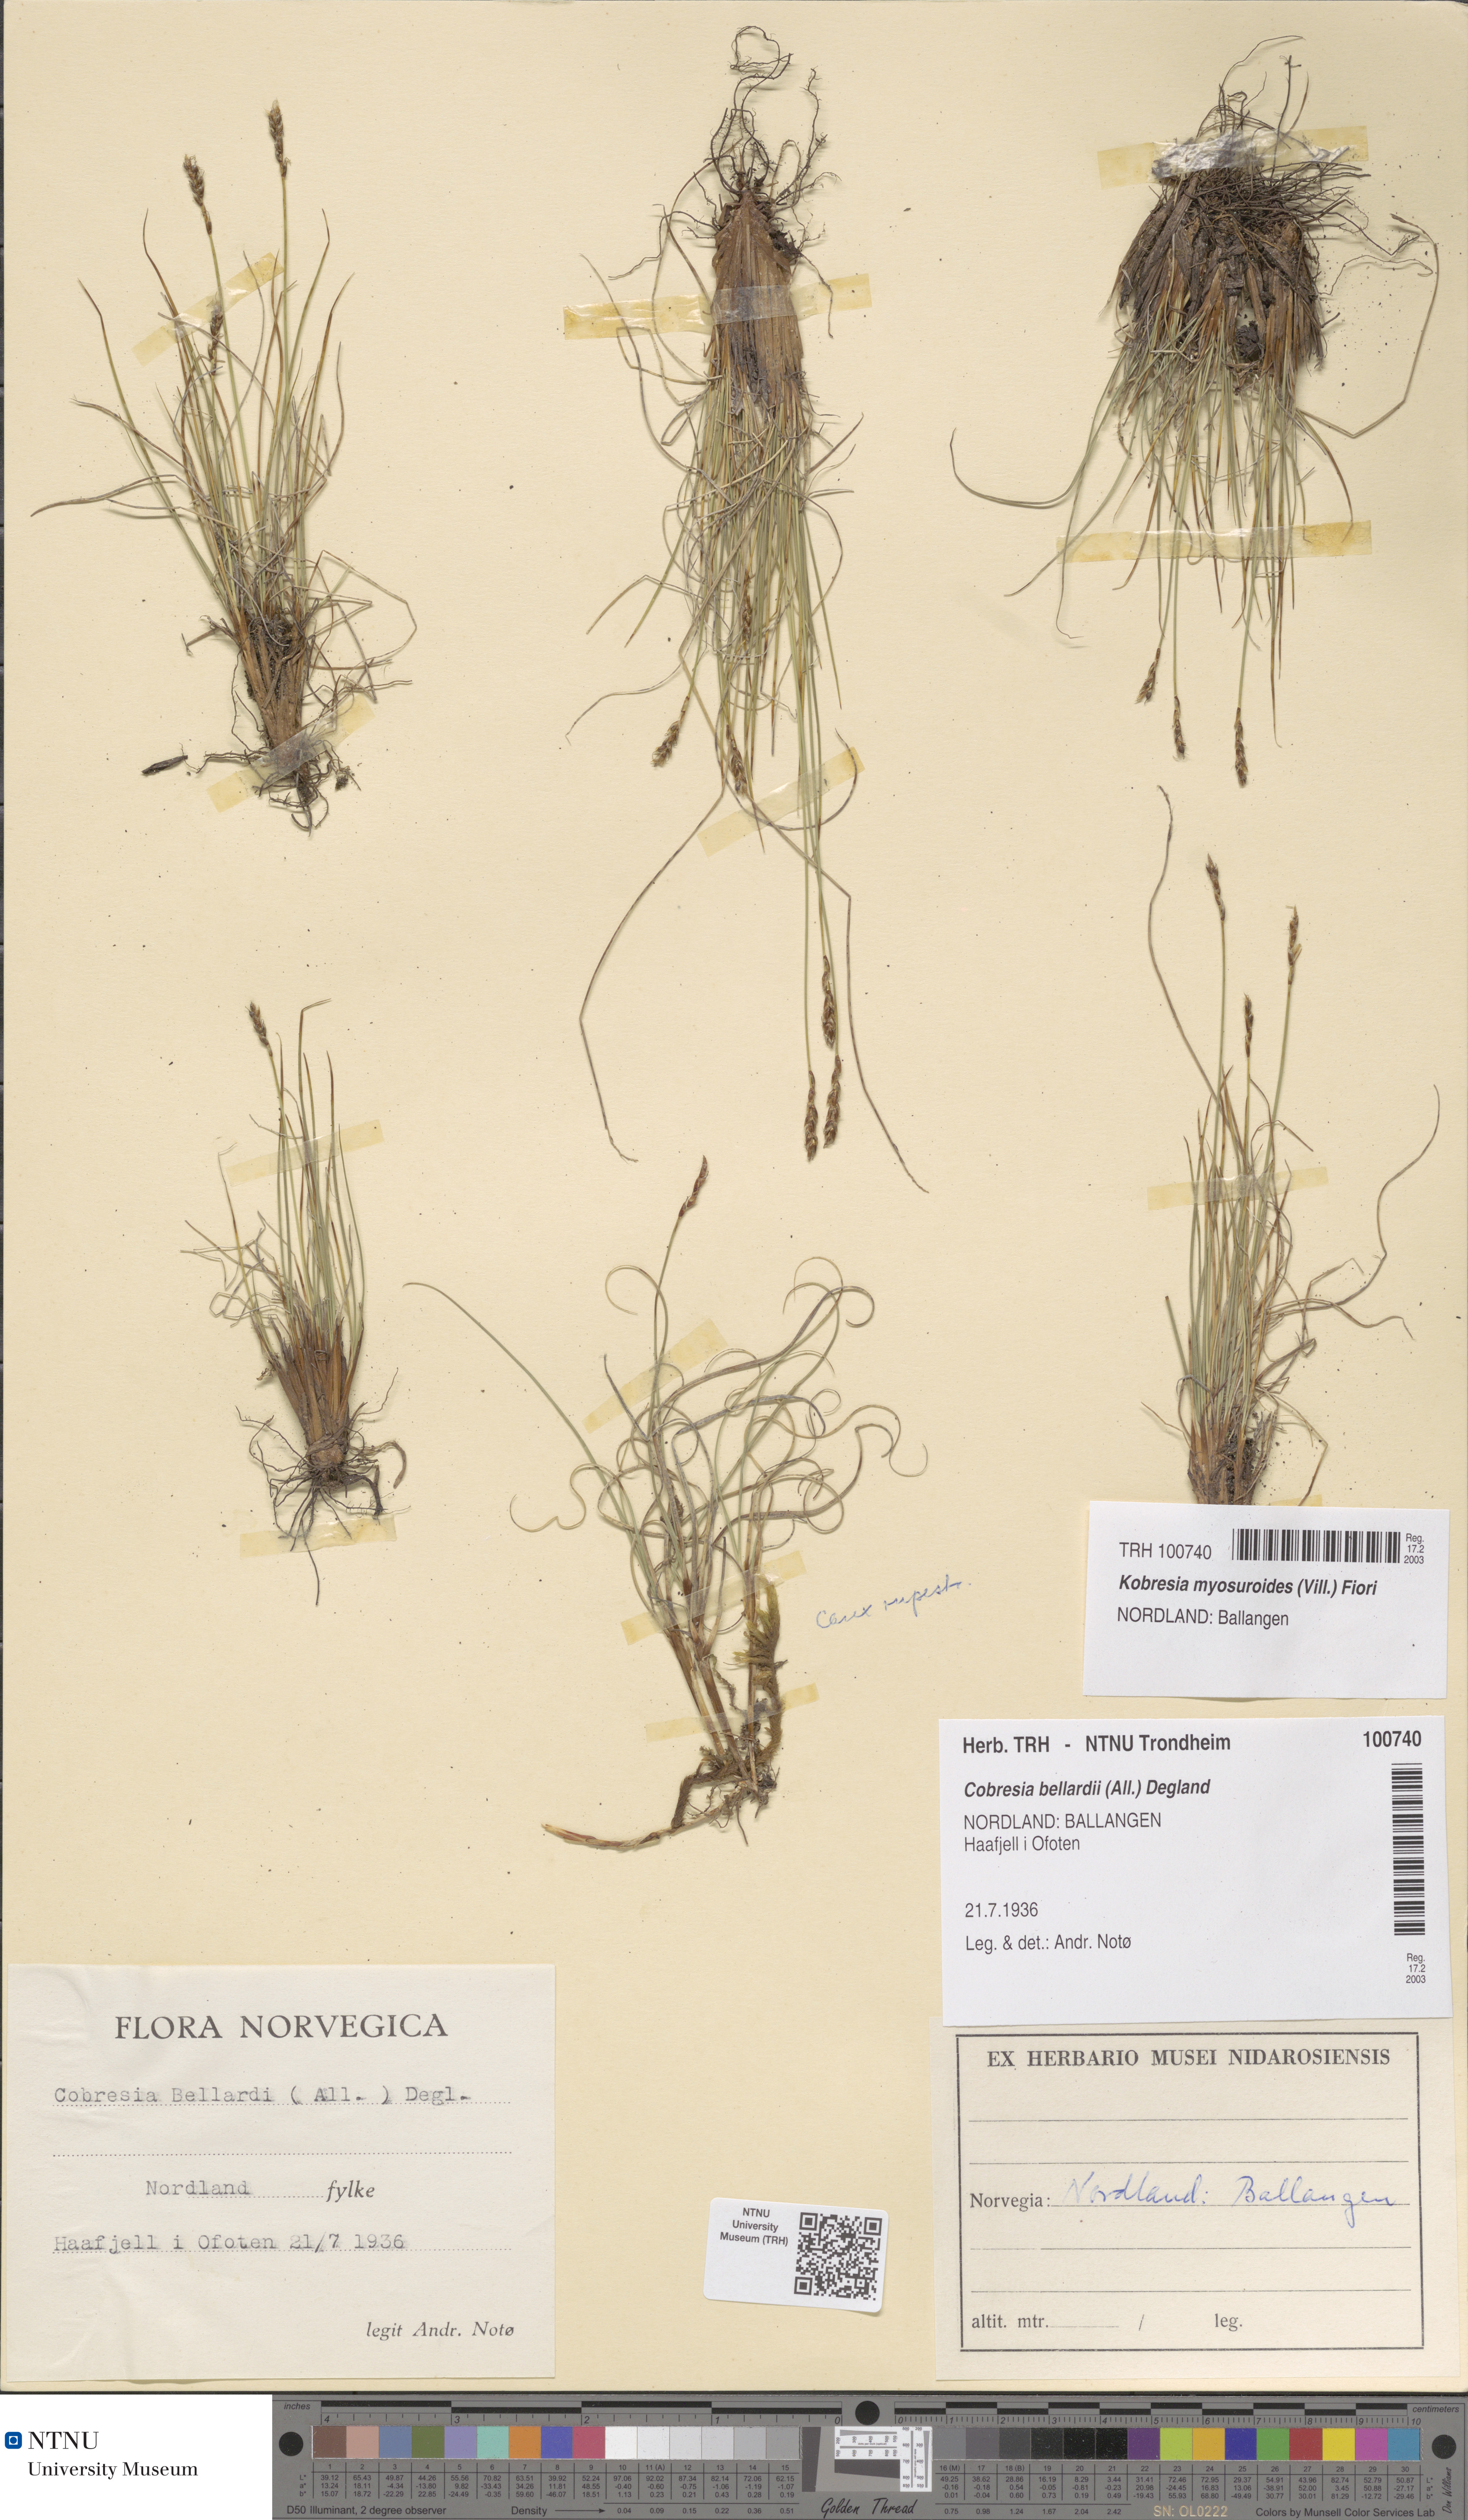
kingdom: Plantae
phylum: Tracheophyta
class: Liliopsida
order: Poales
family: Cyperaceae
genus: Carex
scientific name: Carex myosuroides
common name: Bellard's bog sedge
